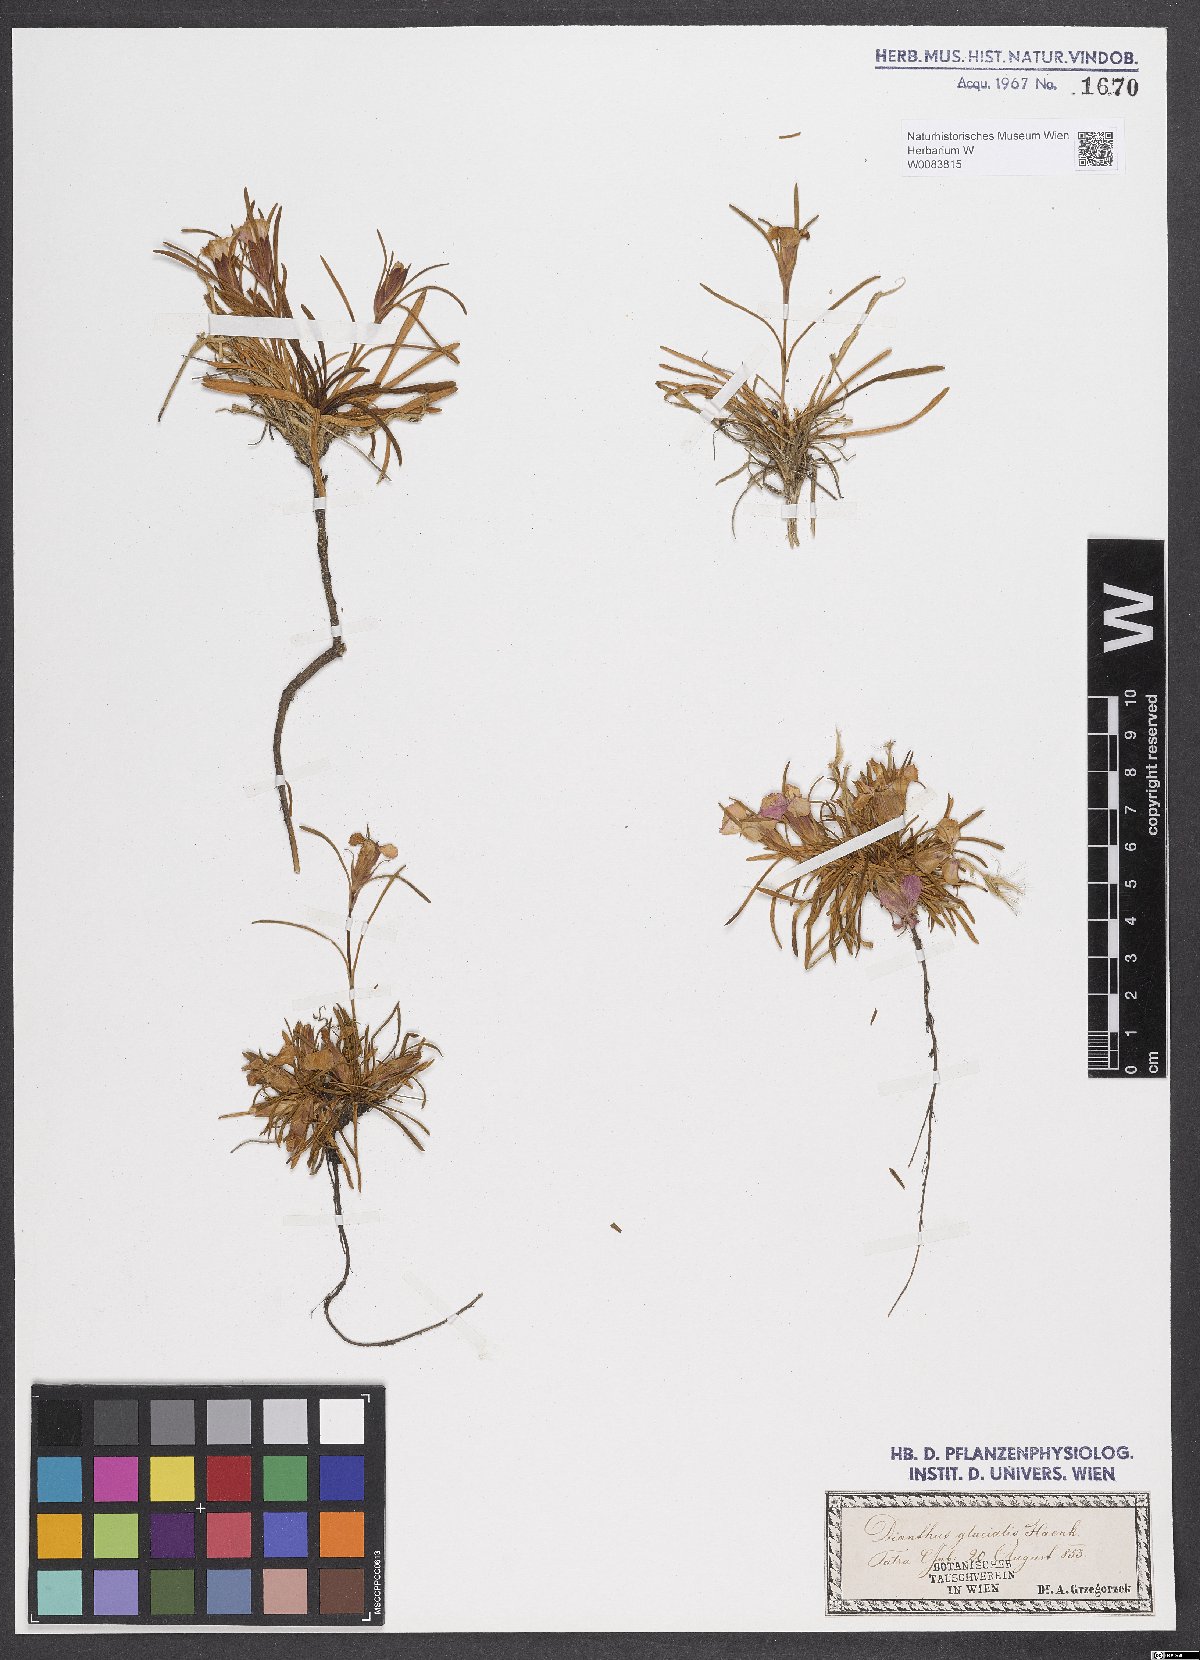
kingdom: Plantae
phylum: Tracheophyta
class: Magnoliopsida
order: Caryophyllales
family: Caryophyllaceae
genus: Dianthus
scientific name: Dianthus glacialis
